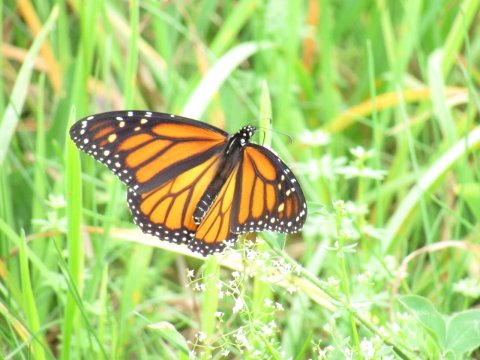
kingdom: Animalia
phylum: Arthropoda
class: Insecta
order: Lepidoptera
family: Nymphalidae
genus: Danaus
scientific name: Danaus plexippus
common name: Monarch
